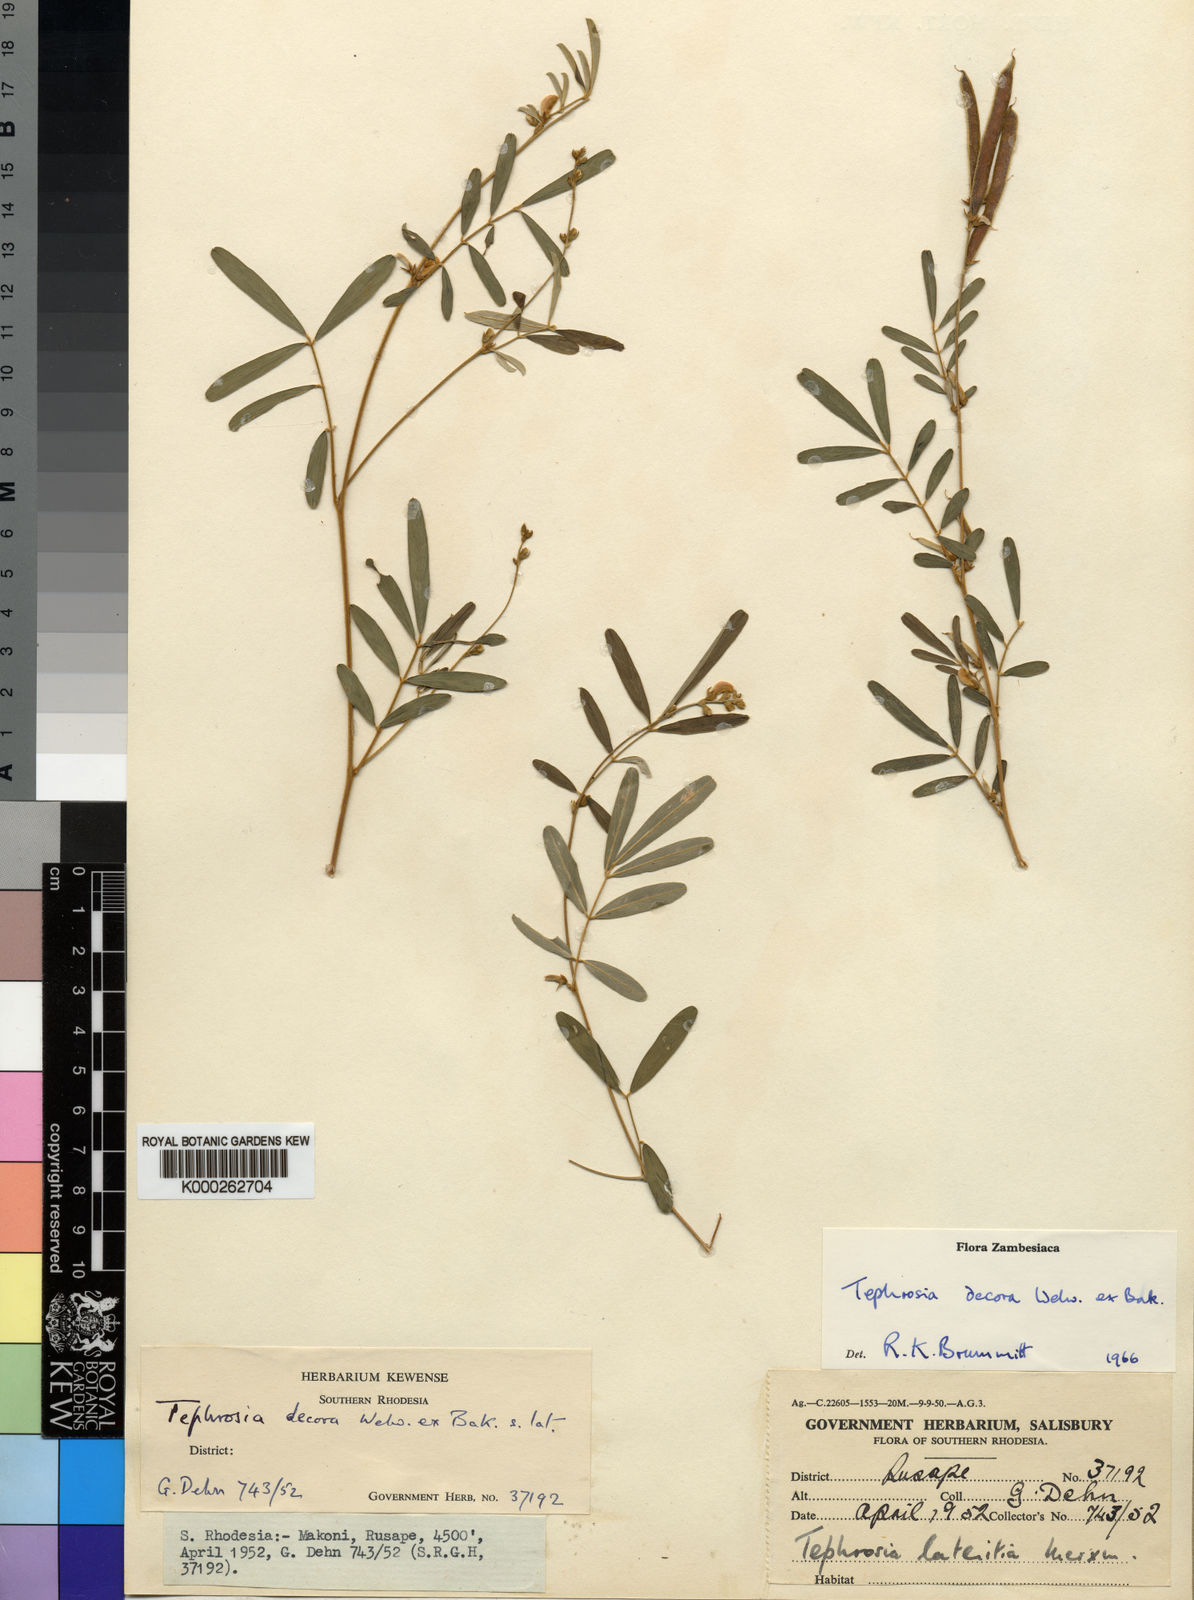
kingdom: Plantae
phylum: Tracheophyta
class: Magnoliopsida
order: Fabales
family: Fabaceae
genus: Tephrosia
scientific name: Tephrosia decora
